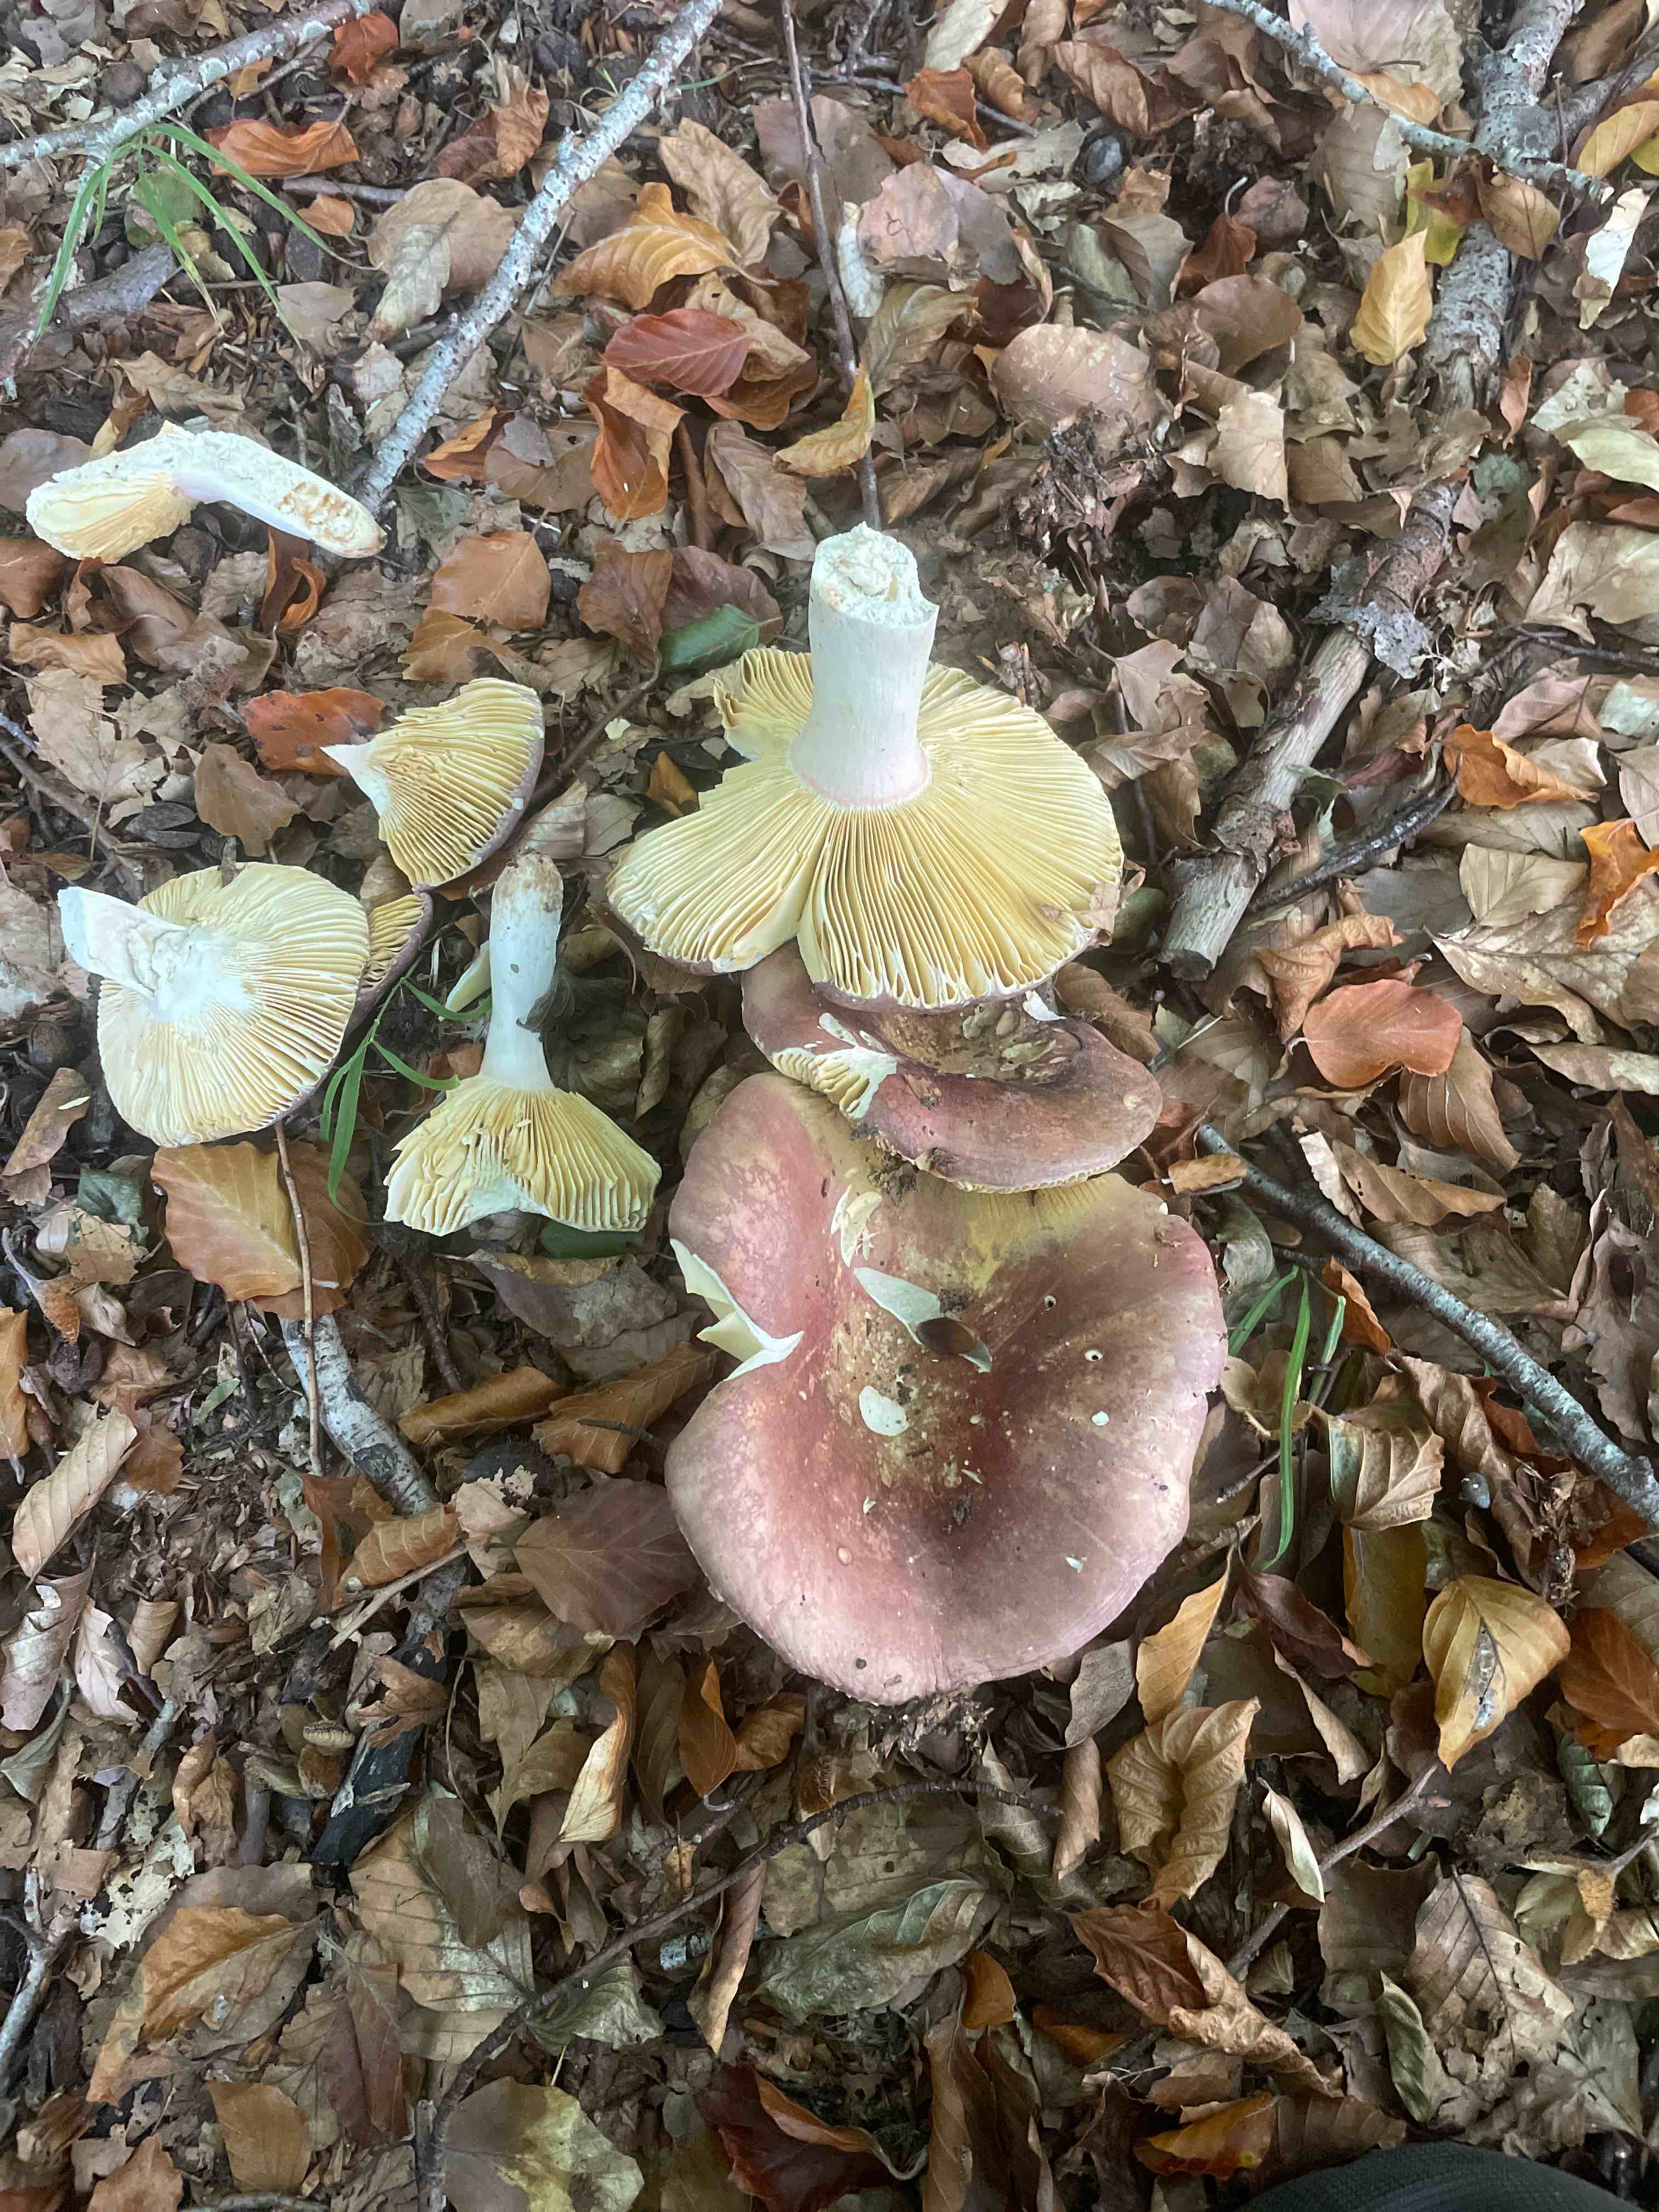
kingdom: Fungi
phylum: Basidiomycota
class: Agaricomycetes
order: Russulales
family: Russulaceae
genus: Russula
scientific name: Russula olivacea
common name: stor skørhat
